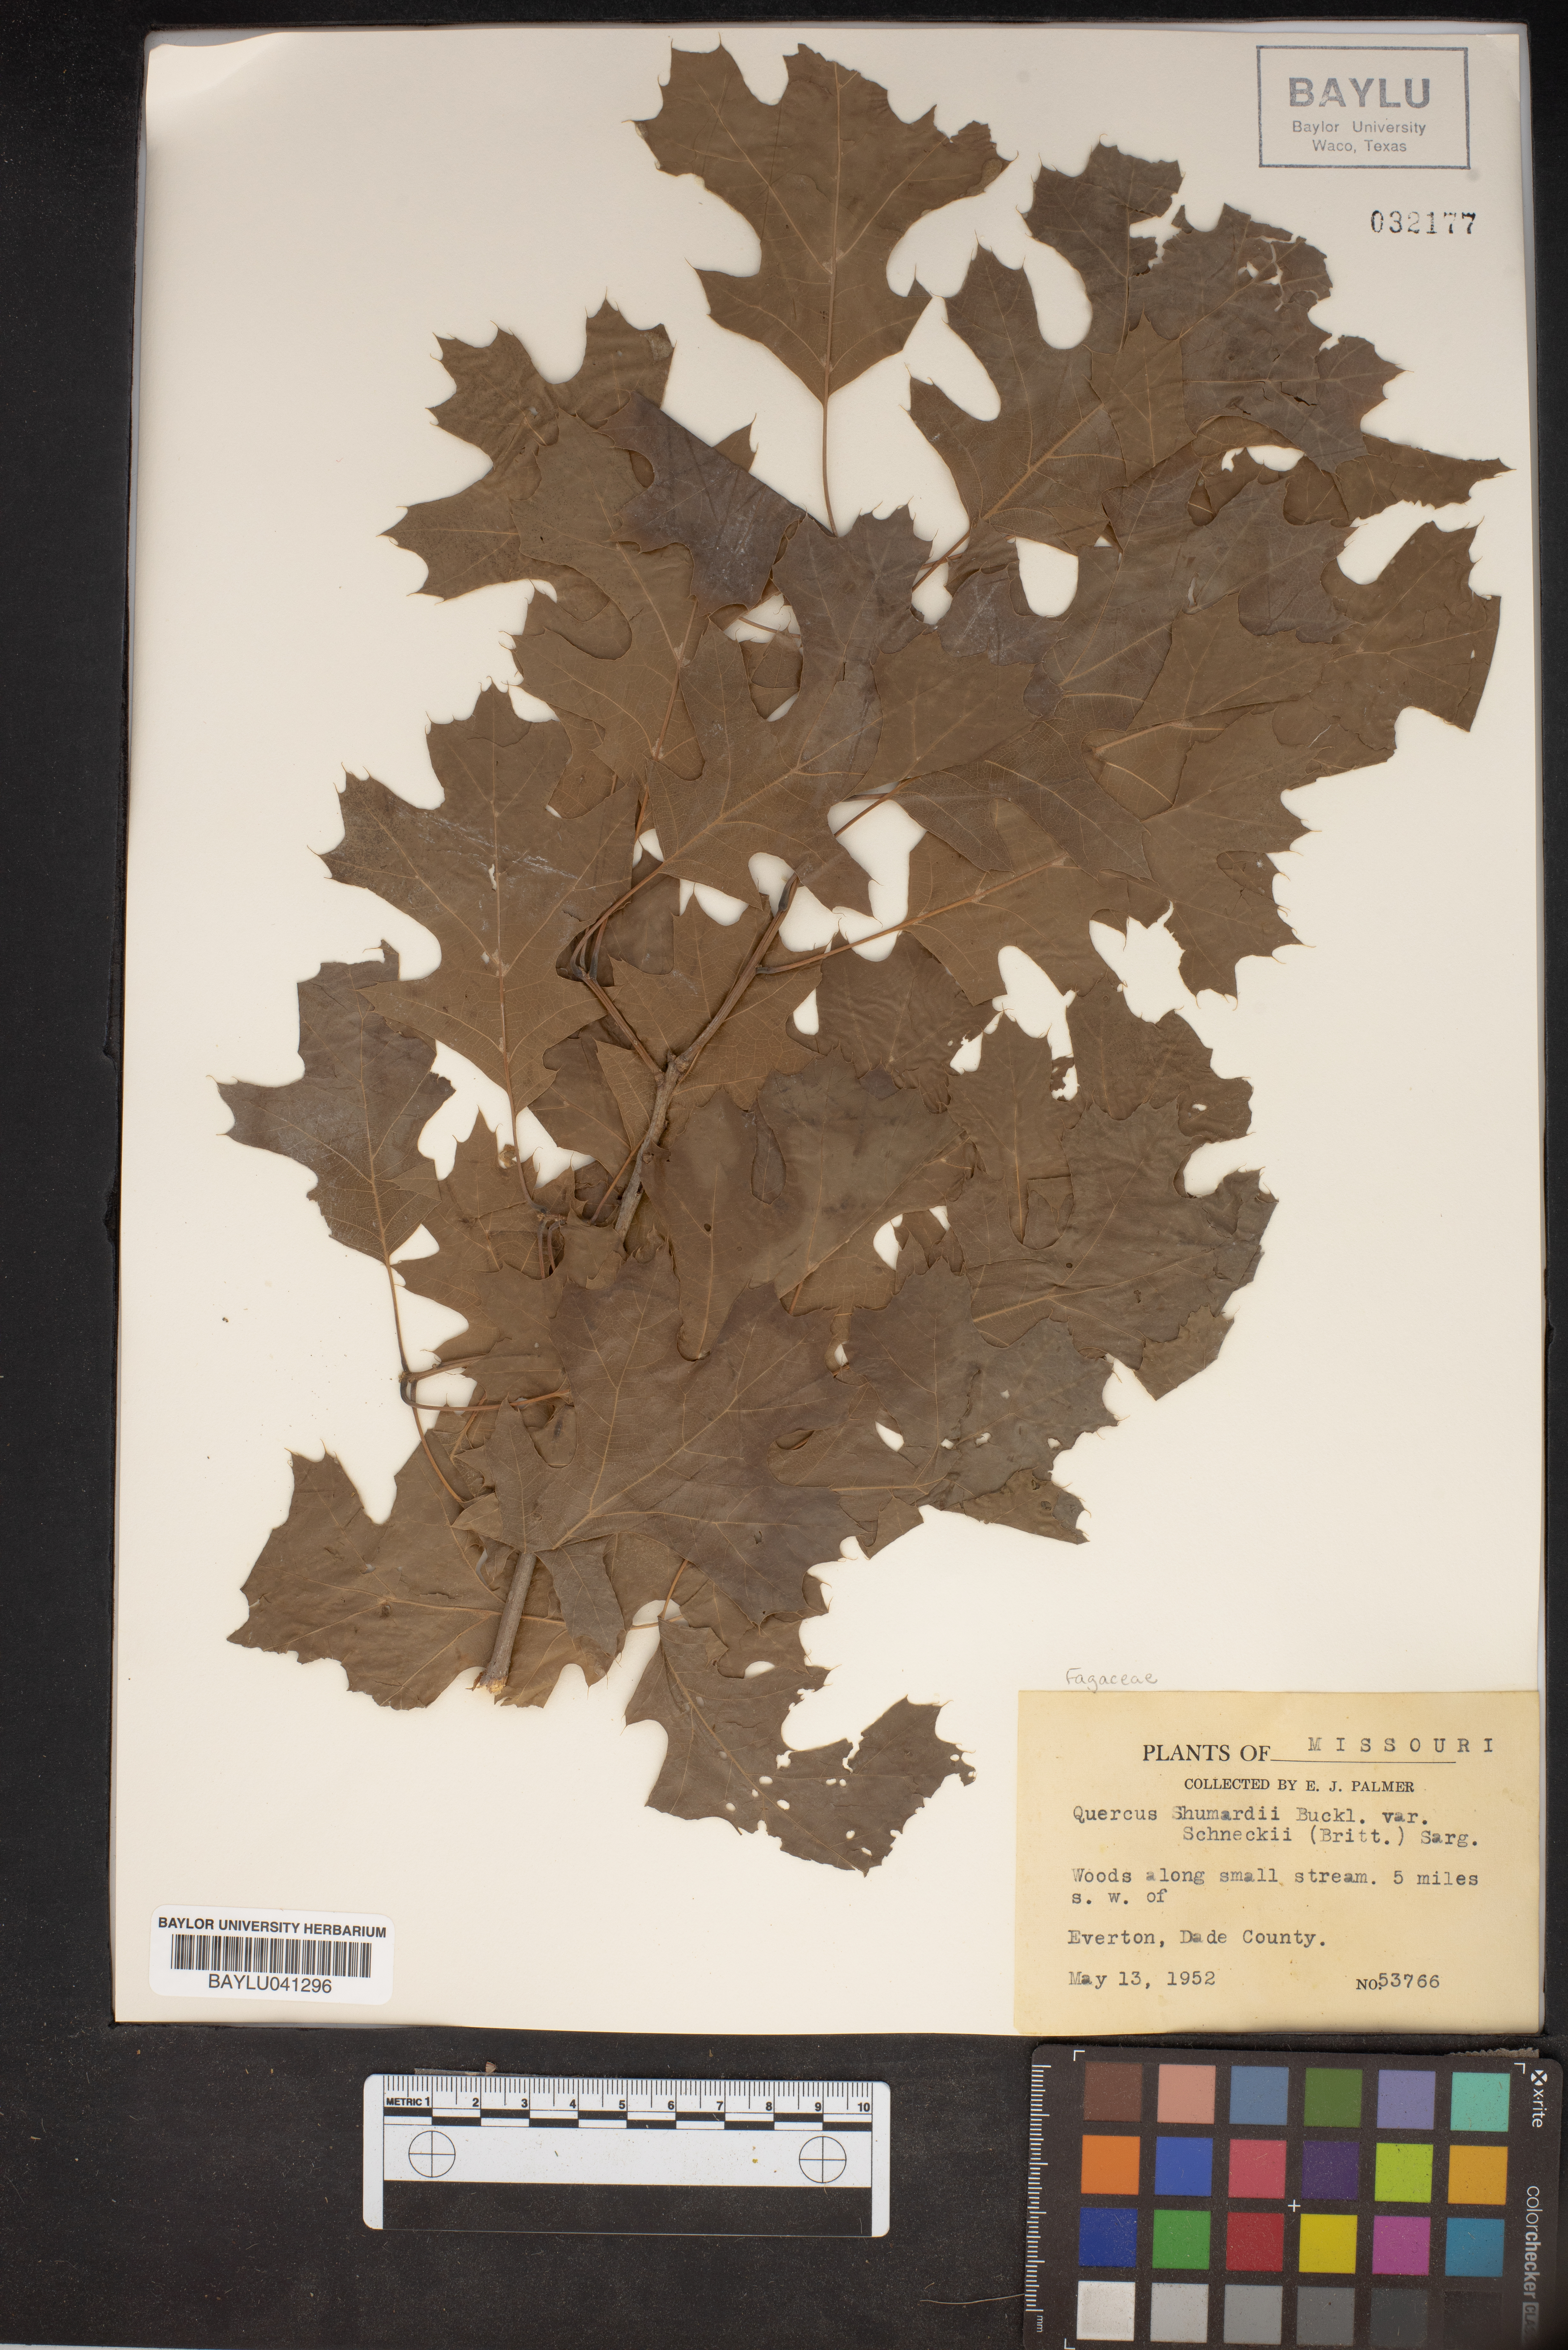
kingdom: Plantae
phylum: Tracheophyta
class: Magnoliopsida
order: Fagales
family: Fagaceae
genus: Quercus
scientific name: Quercus shumardii
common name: Shumard oak
